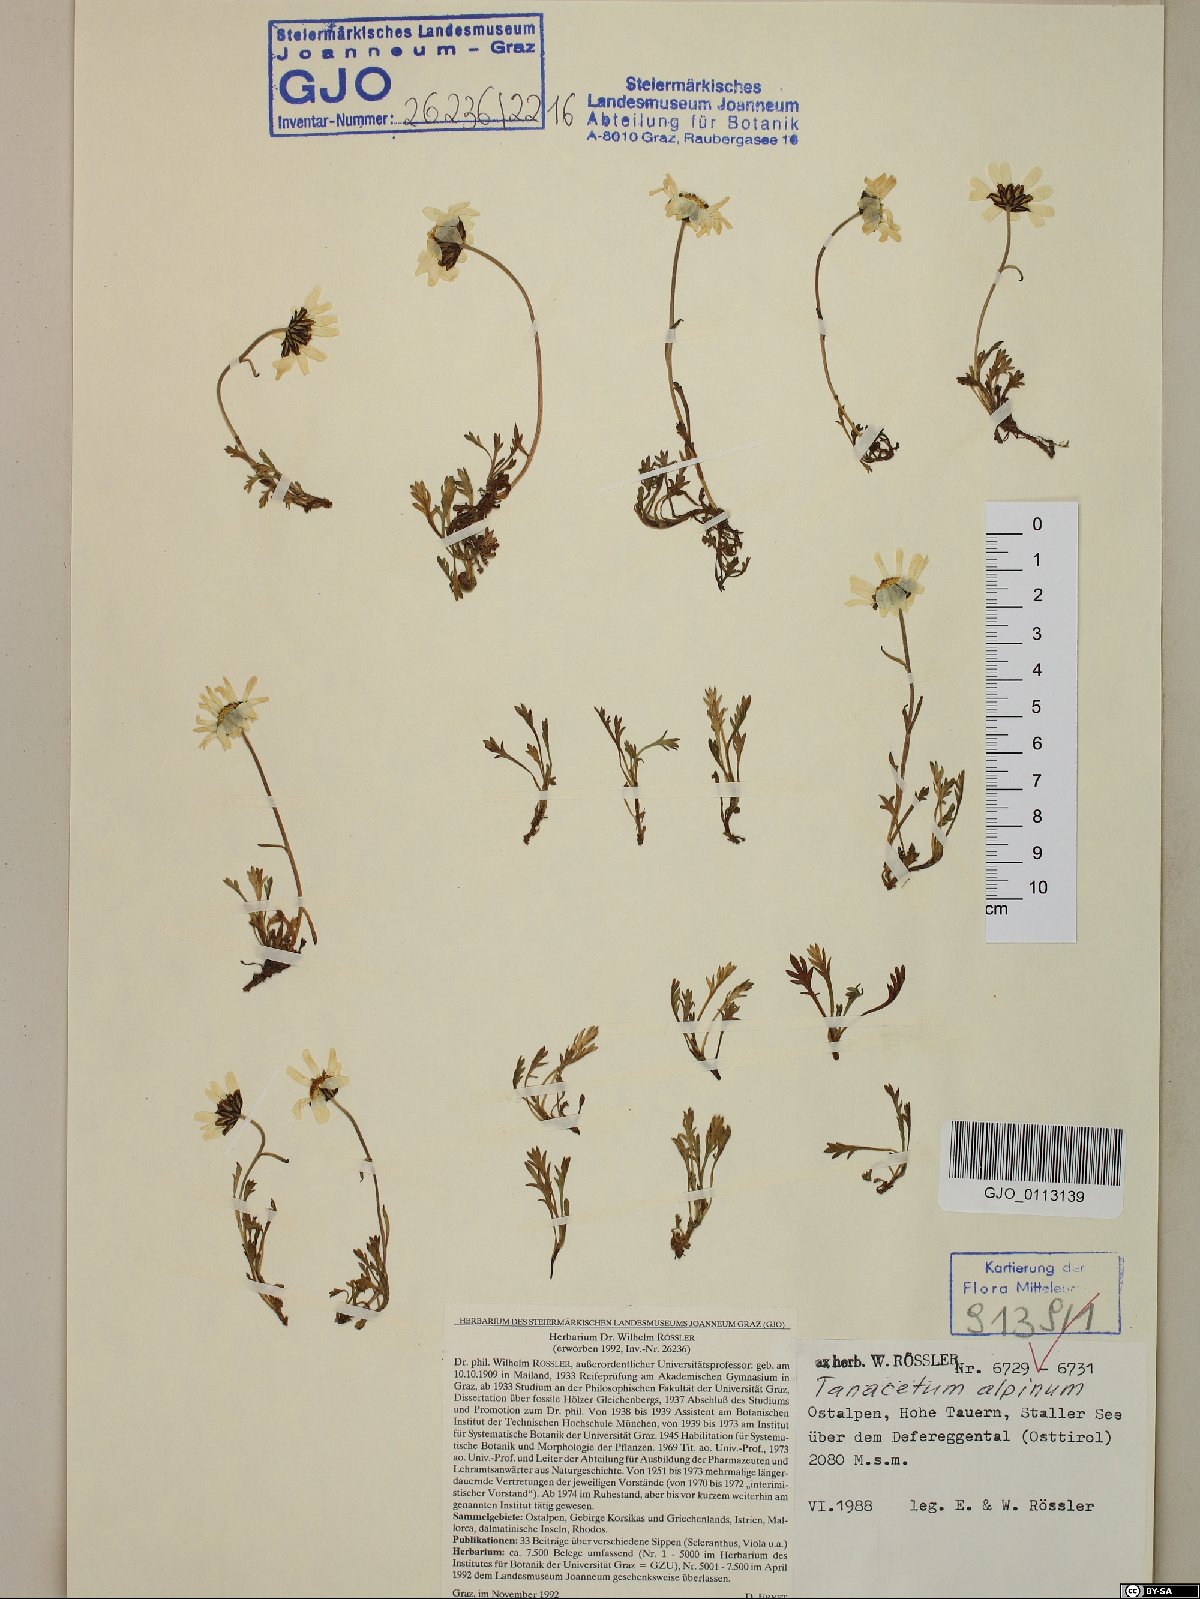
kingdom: Plantae
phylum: Tracheophyta
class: Magnoliopsida
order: Asterales
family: Asteraceae
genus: Leucanthemopsis
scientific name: Leucanthemopsis alpina
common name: Alpine moon daisy
